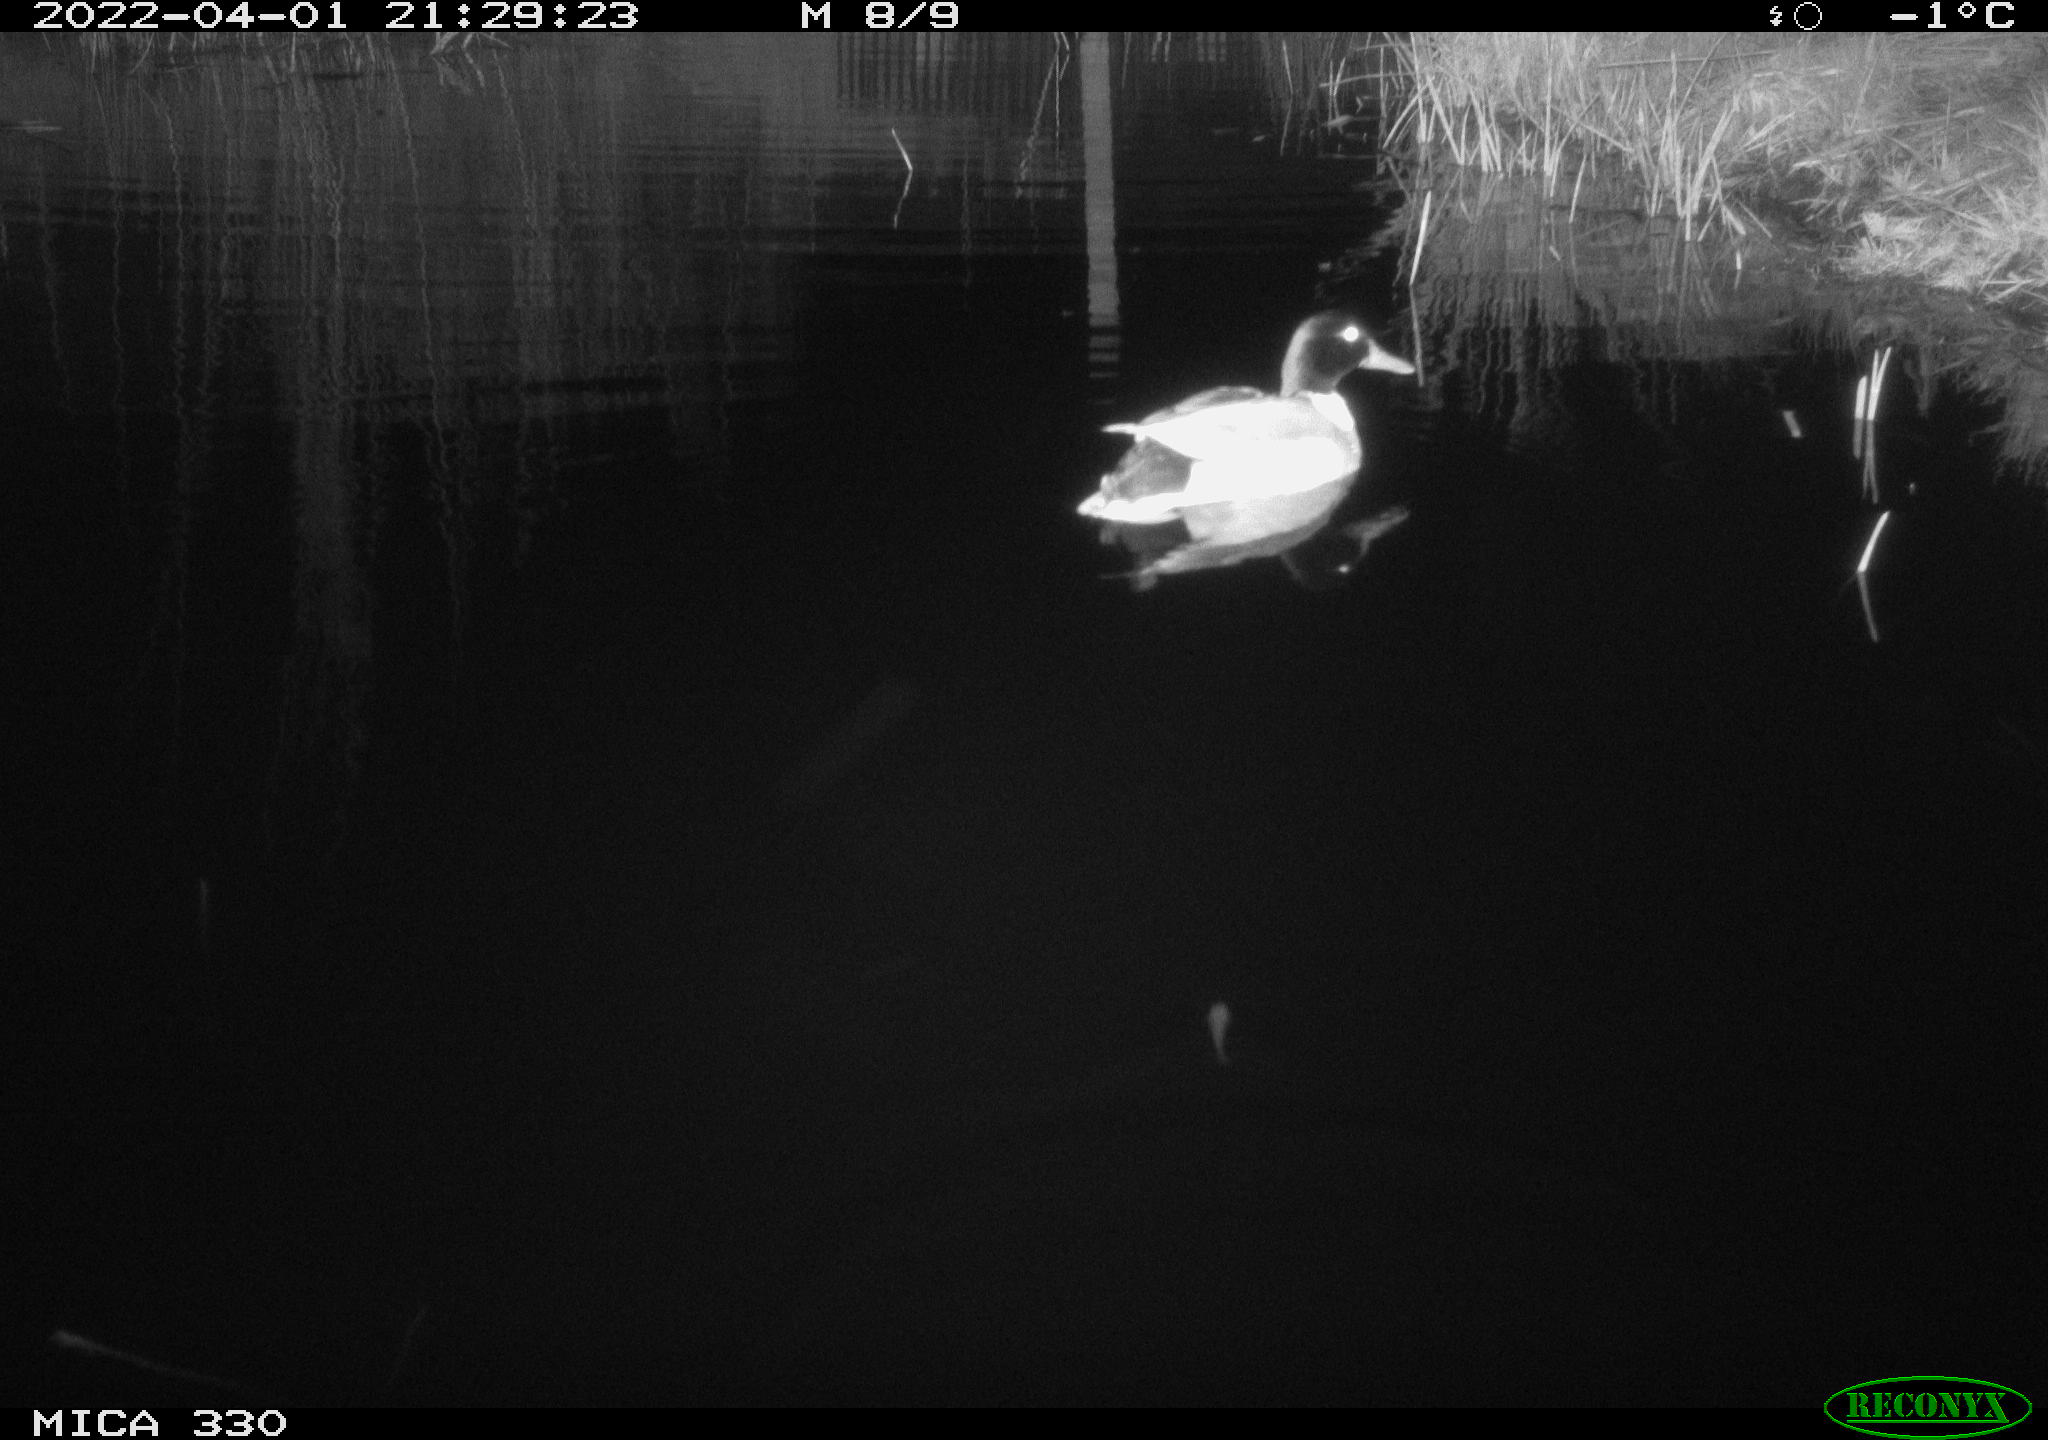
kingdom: Animalia
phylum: Chordata
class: Aves
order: Anseriformes
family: Anatidae
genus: Anas
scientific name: Anas platyrhynchos
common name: Mallard
